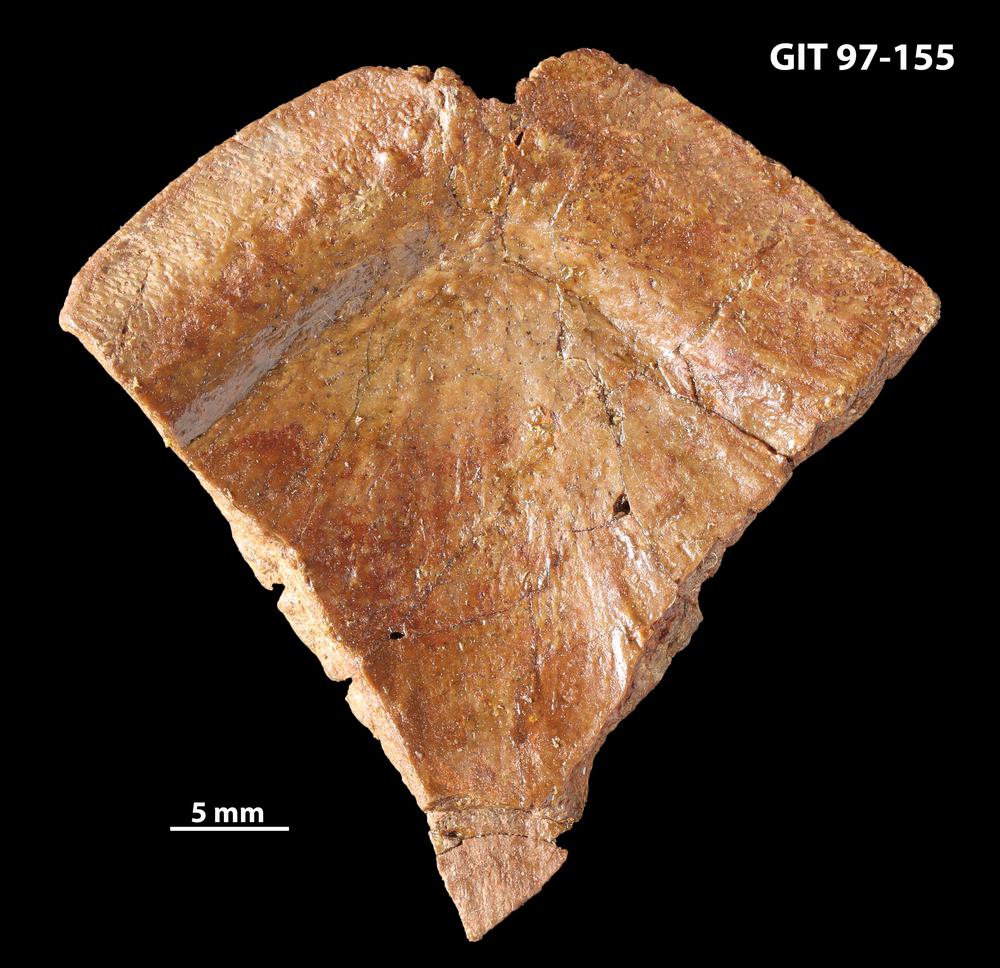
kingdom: Animalia
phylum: Chordata
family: Holonematidae
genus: Holonema
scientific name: Holonema
